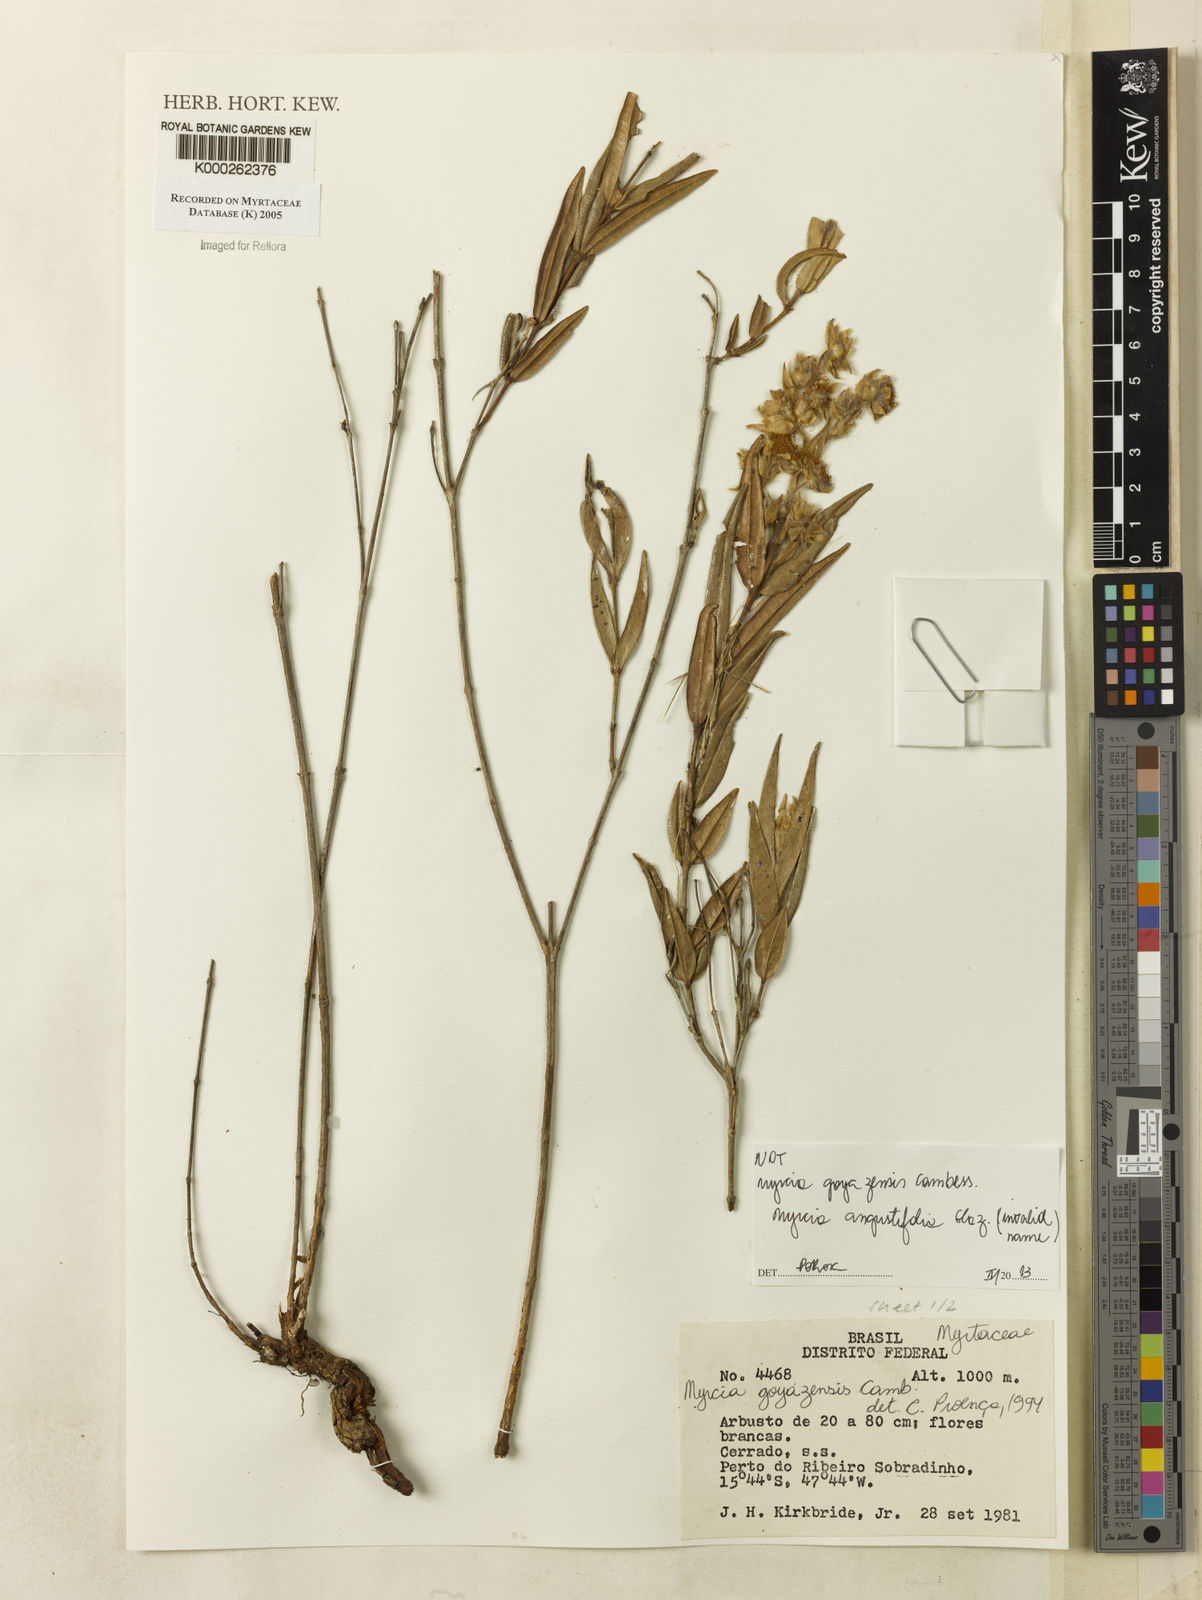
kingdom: Plantae
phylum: Tracheophyta
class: Magnoliopsida
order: Myrtales
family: Myrtaceae
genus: Myrcia
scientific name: Myrcia goyazensis
